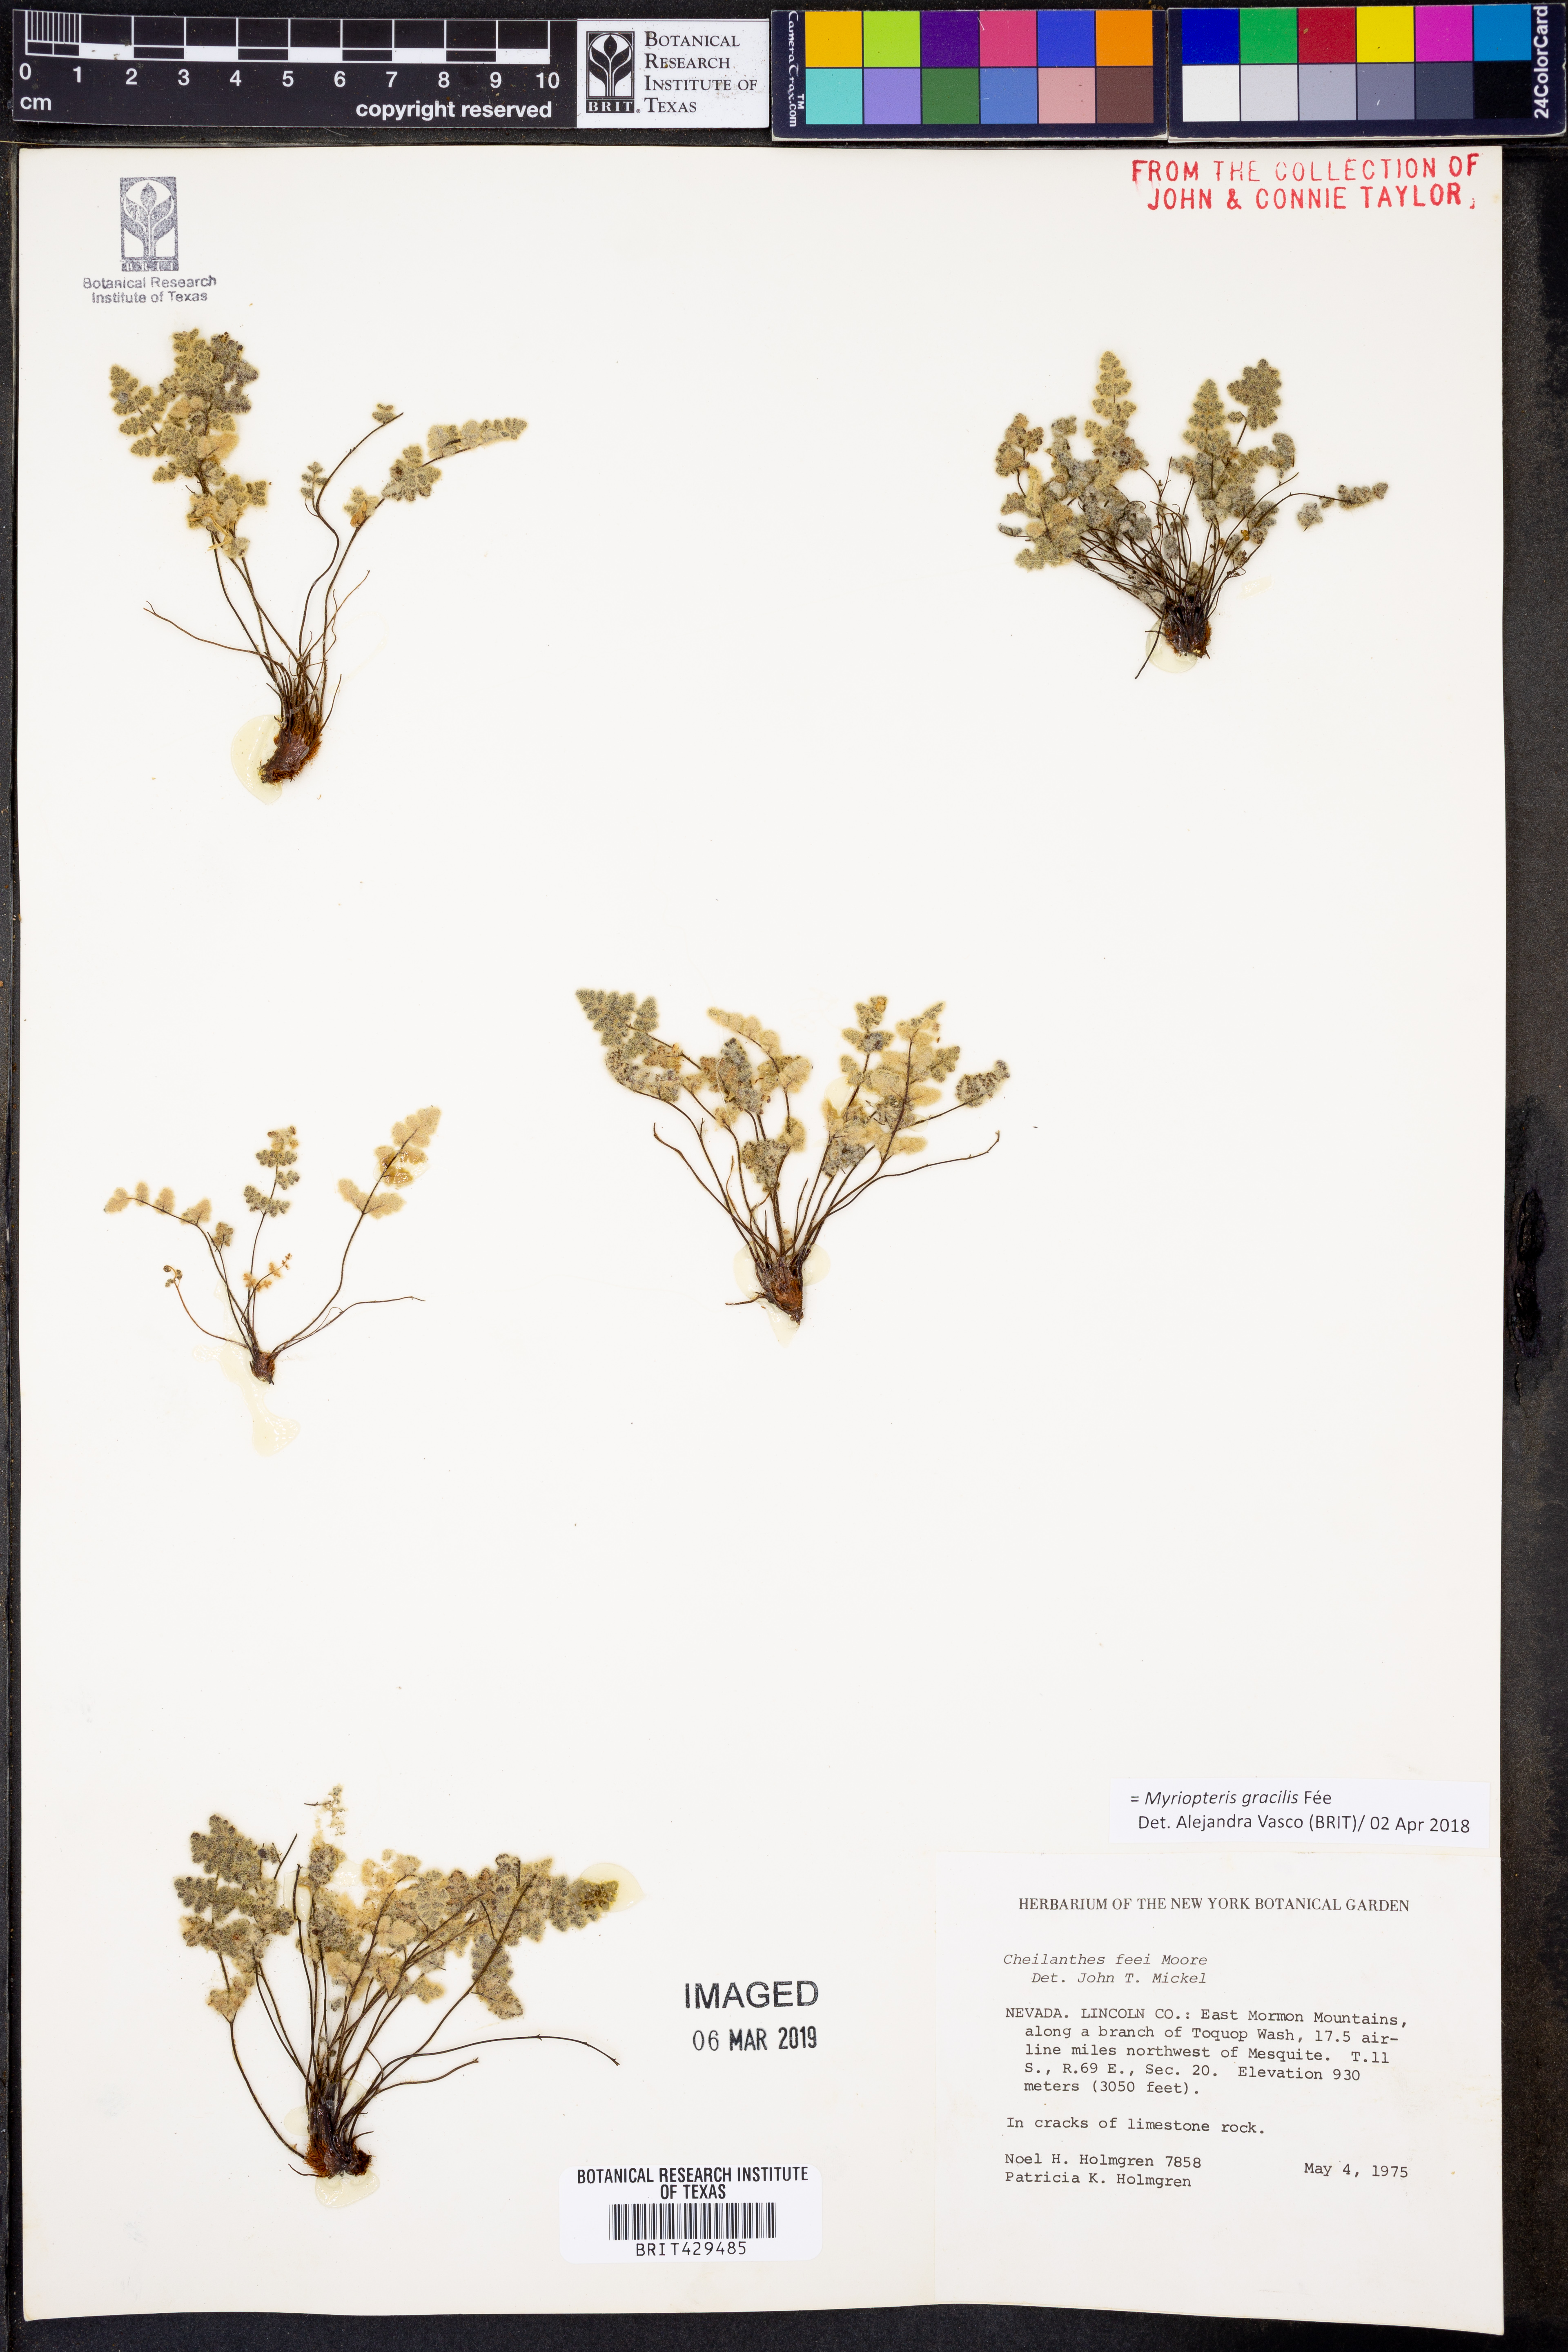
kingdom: Plantae
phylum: Tracheophyta
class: Polypodiopsida
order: Polypodiales
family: Pteridaceae
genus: Myriopteris
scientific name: Myriopteris gracilis
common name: Fee's lip fern
